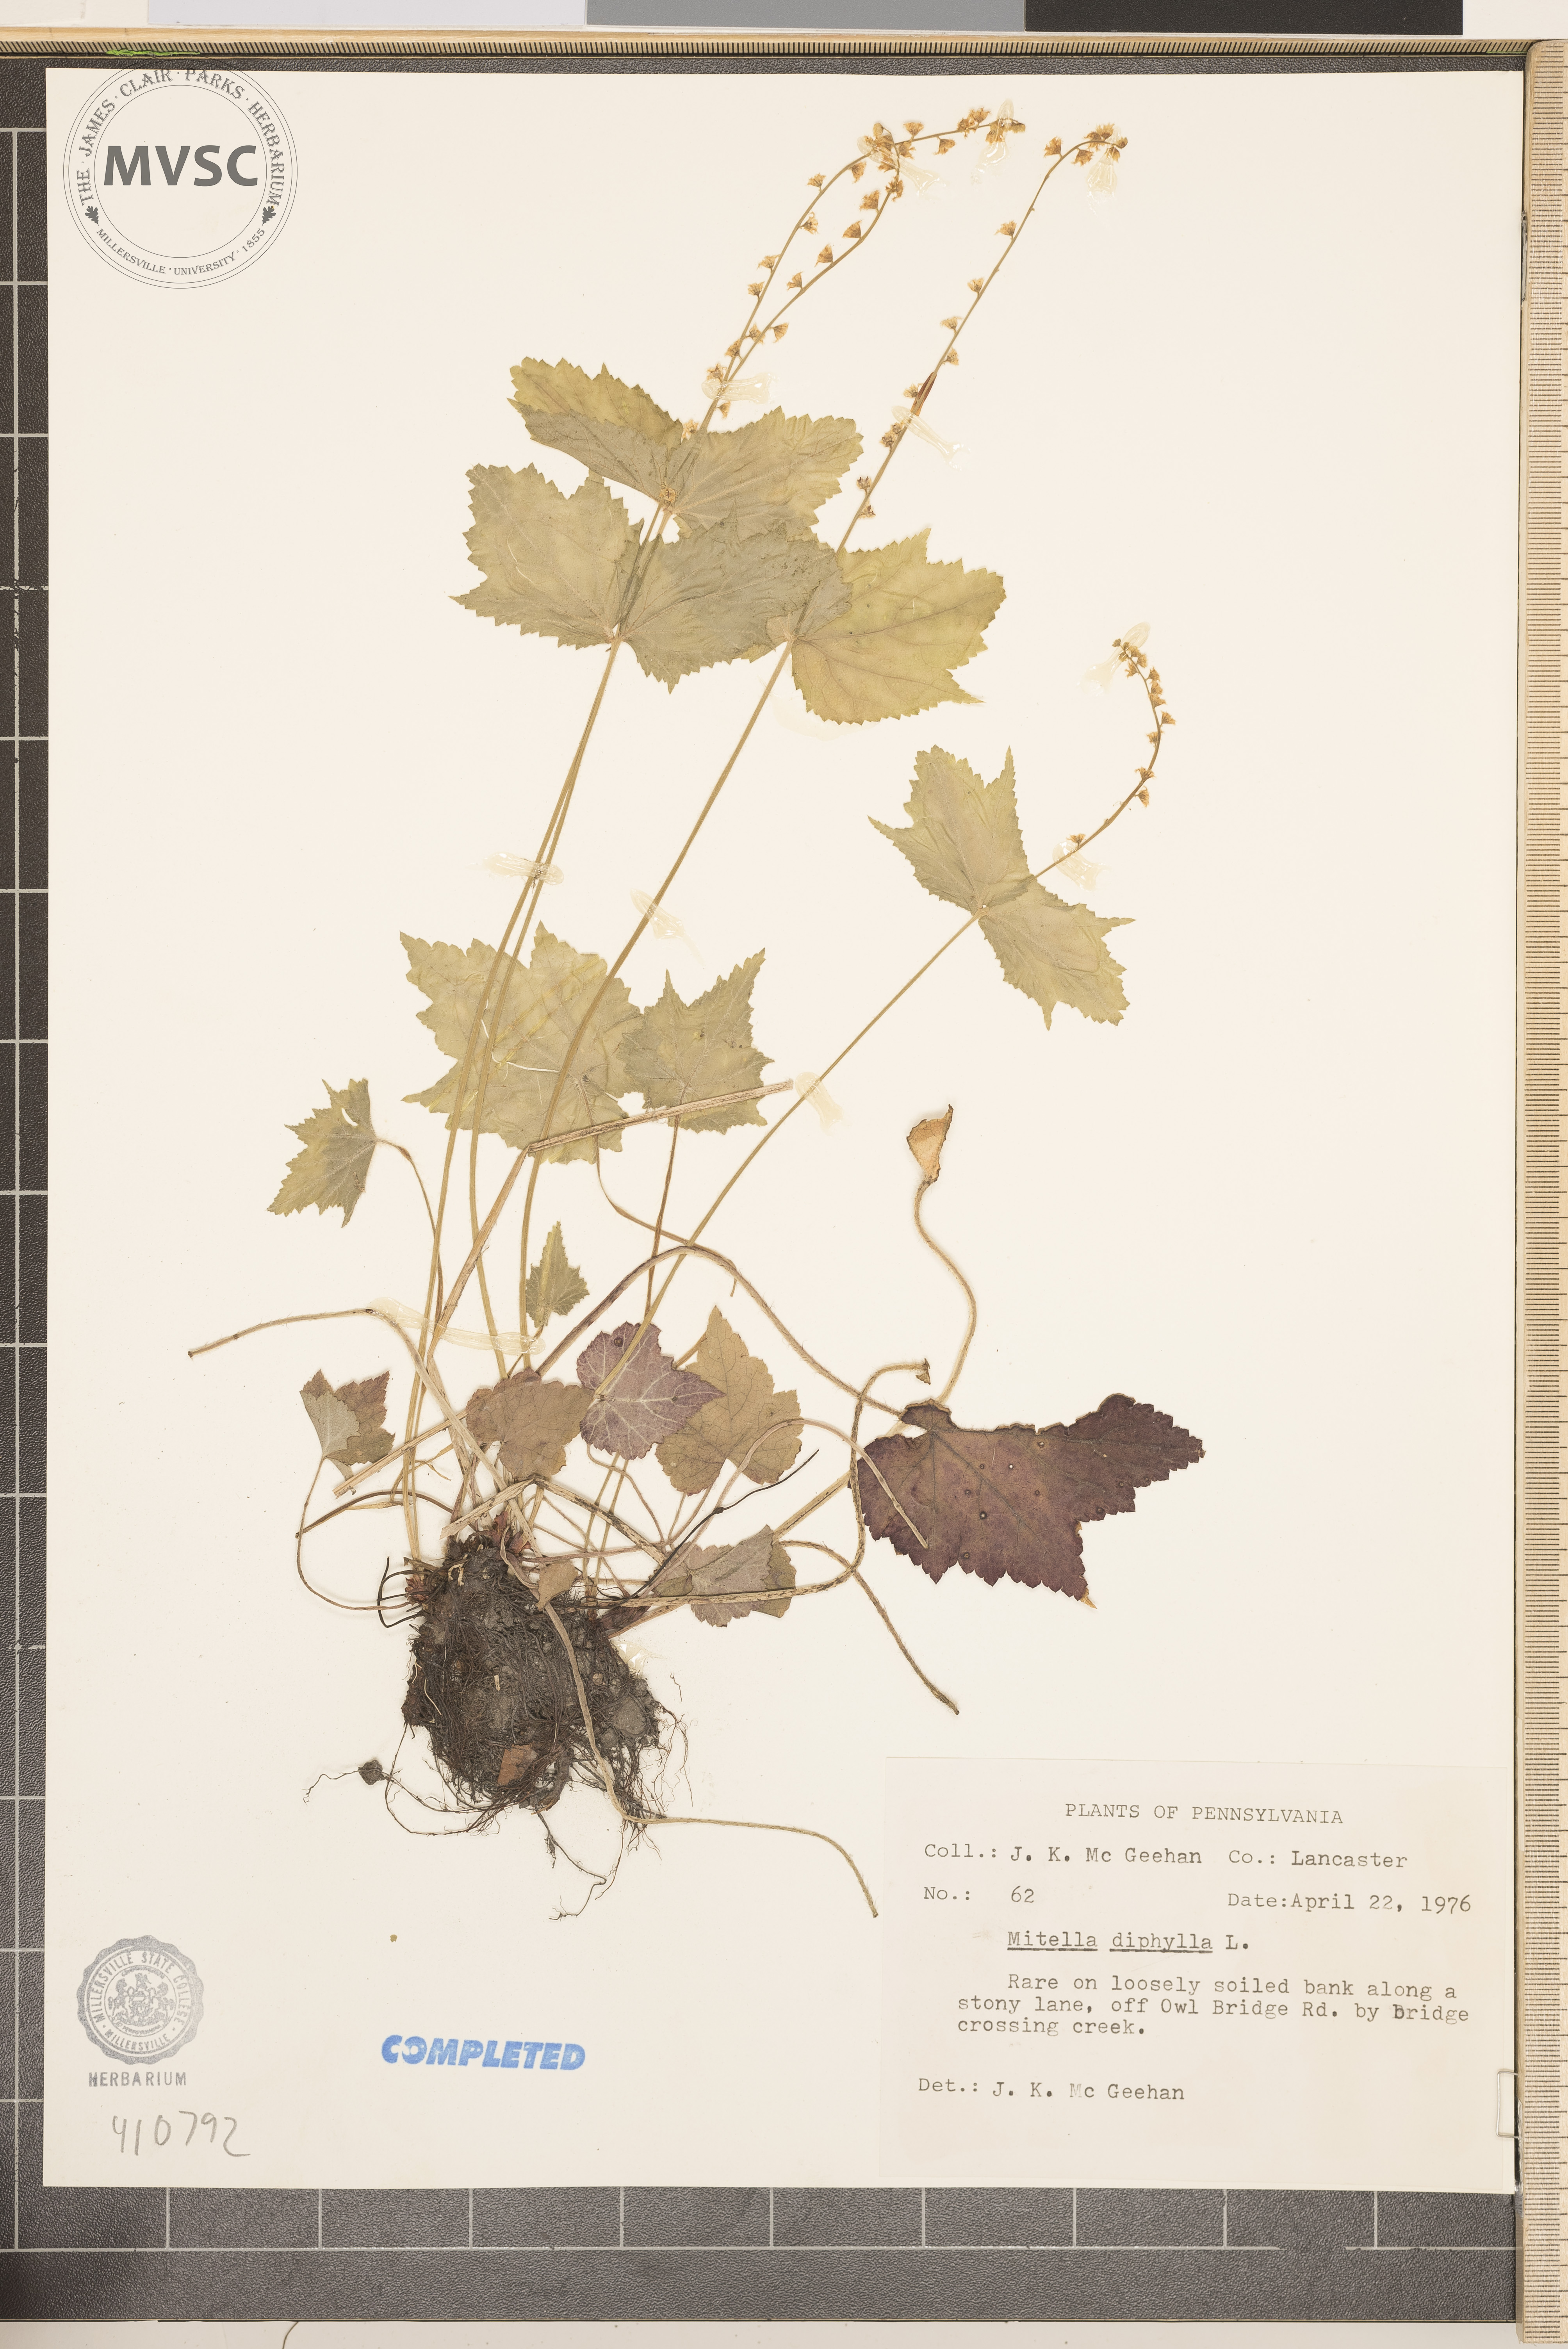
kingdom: Plantae
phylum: Tracheophyta
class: Magnoliopsida
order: Saxifragales
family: Saxifragaceae
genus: Mitella
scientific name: Mitella diphylla
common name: Coolwort
